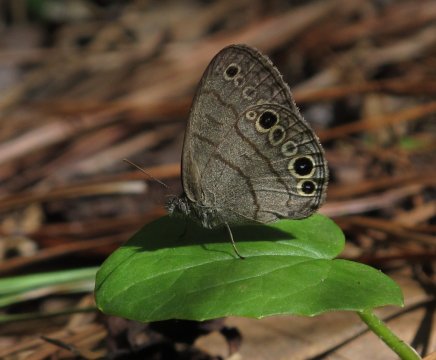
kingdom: Animalia
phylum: Arthropoda
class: Insecta
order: Lepidoptera
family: Nymphalidae
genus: Hermeuptychia
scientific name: Hermeuptychia intricata
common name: Intricate Satyr
